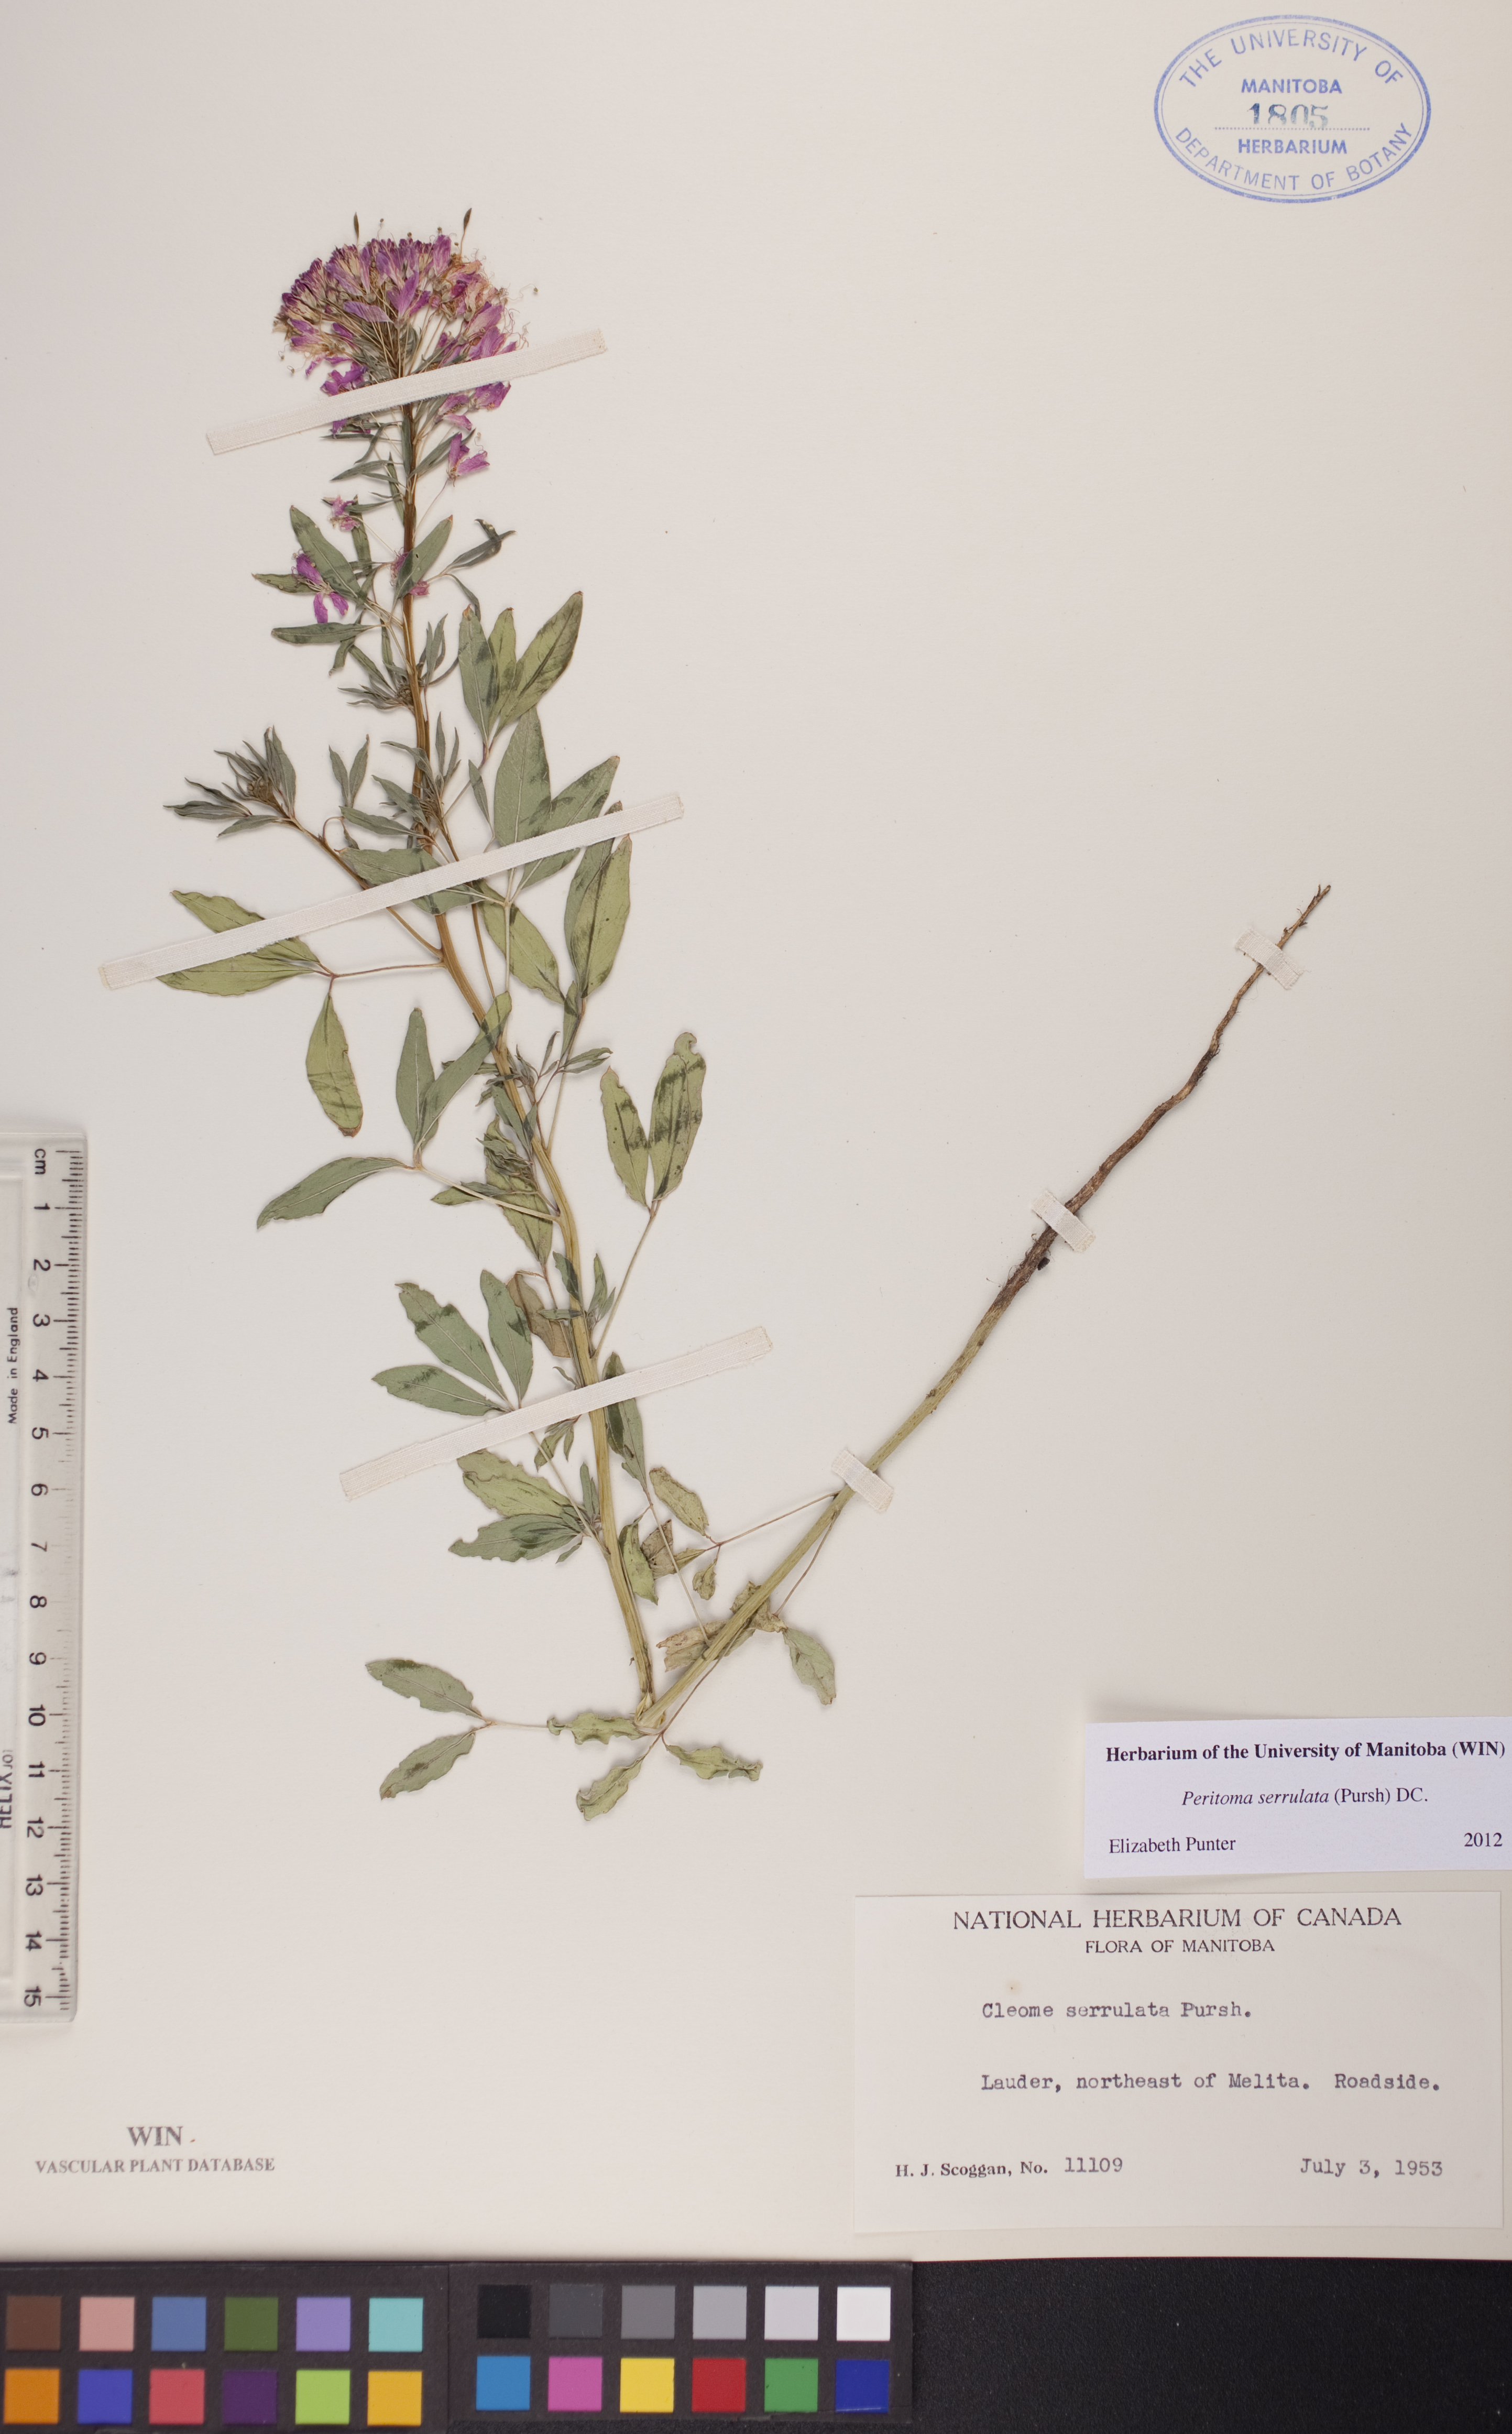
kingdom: Plantae
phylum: Tracheophyta
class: Magnoliopsida
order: Brassicales
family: Cleomaceae
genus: Cleomella
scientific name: Cleomella serrulata
